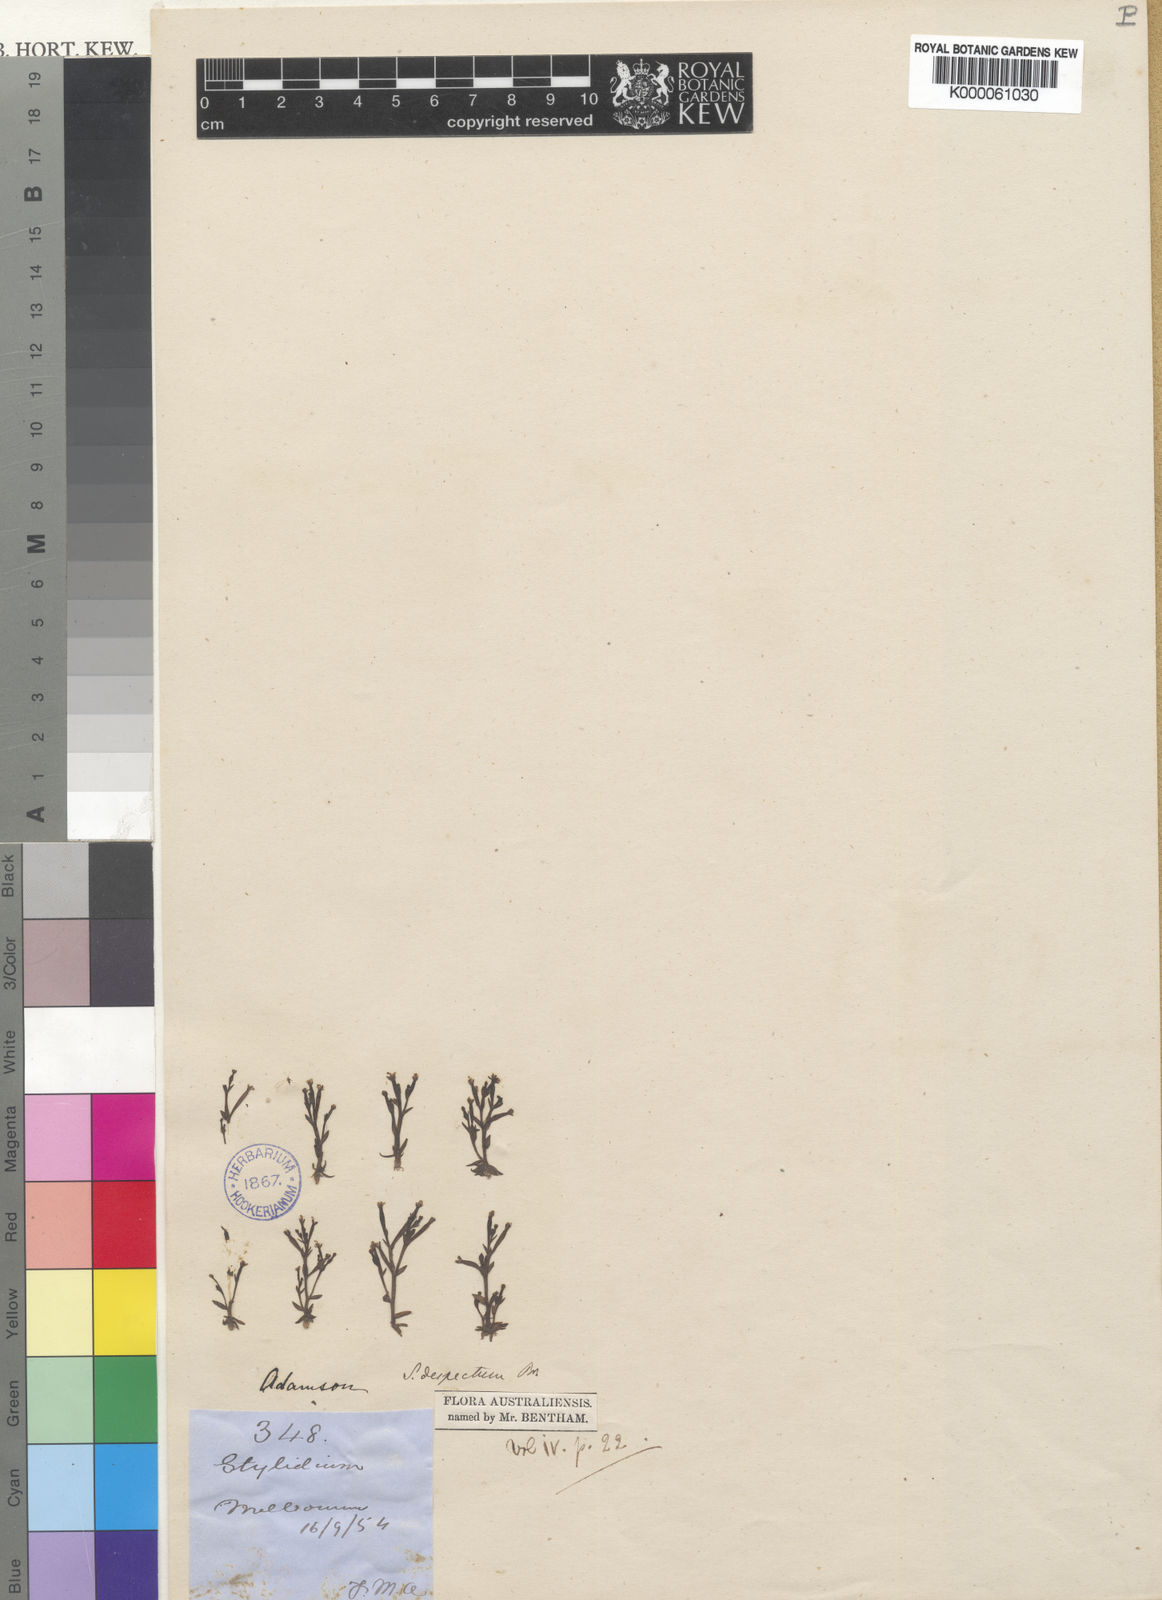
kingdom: Plantae
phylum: Tracheophyta
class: Magnoliopsida
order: Asterales
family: Stylidiaceae
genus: Stylidium
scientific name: Stylidium despectum
